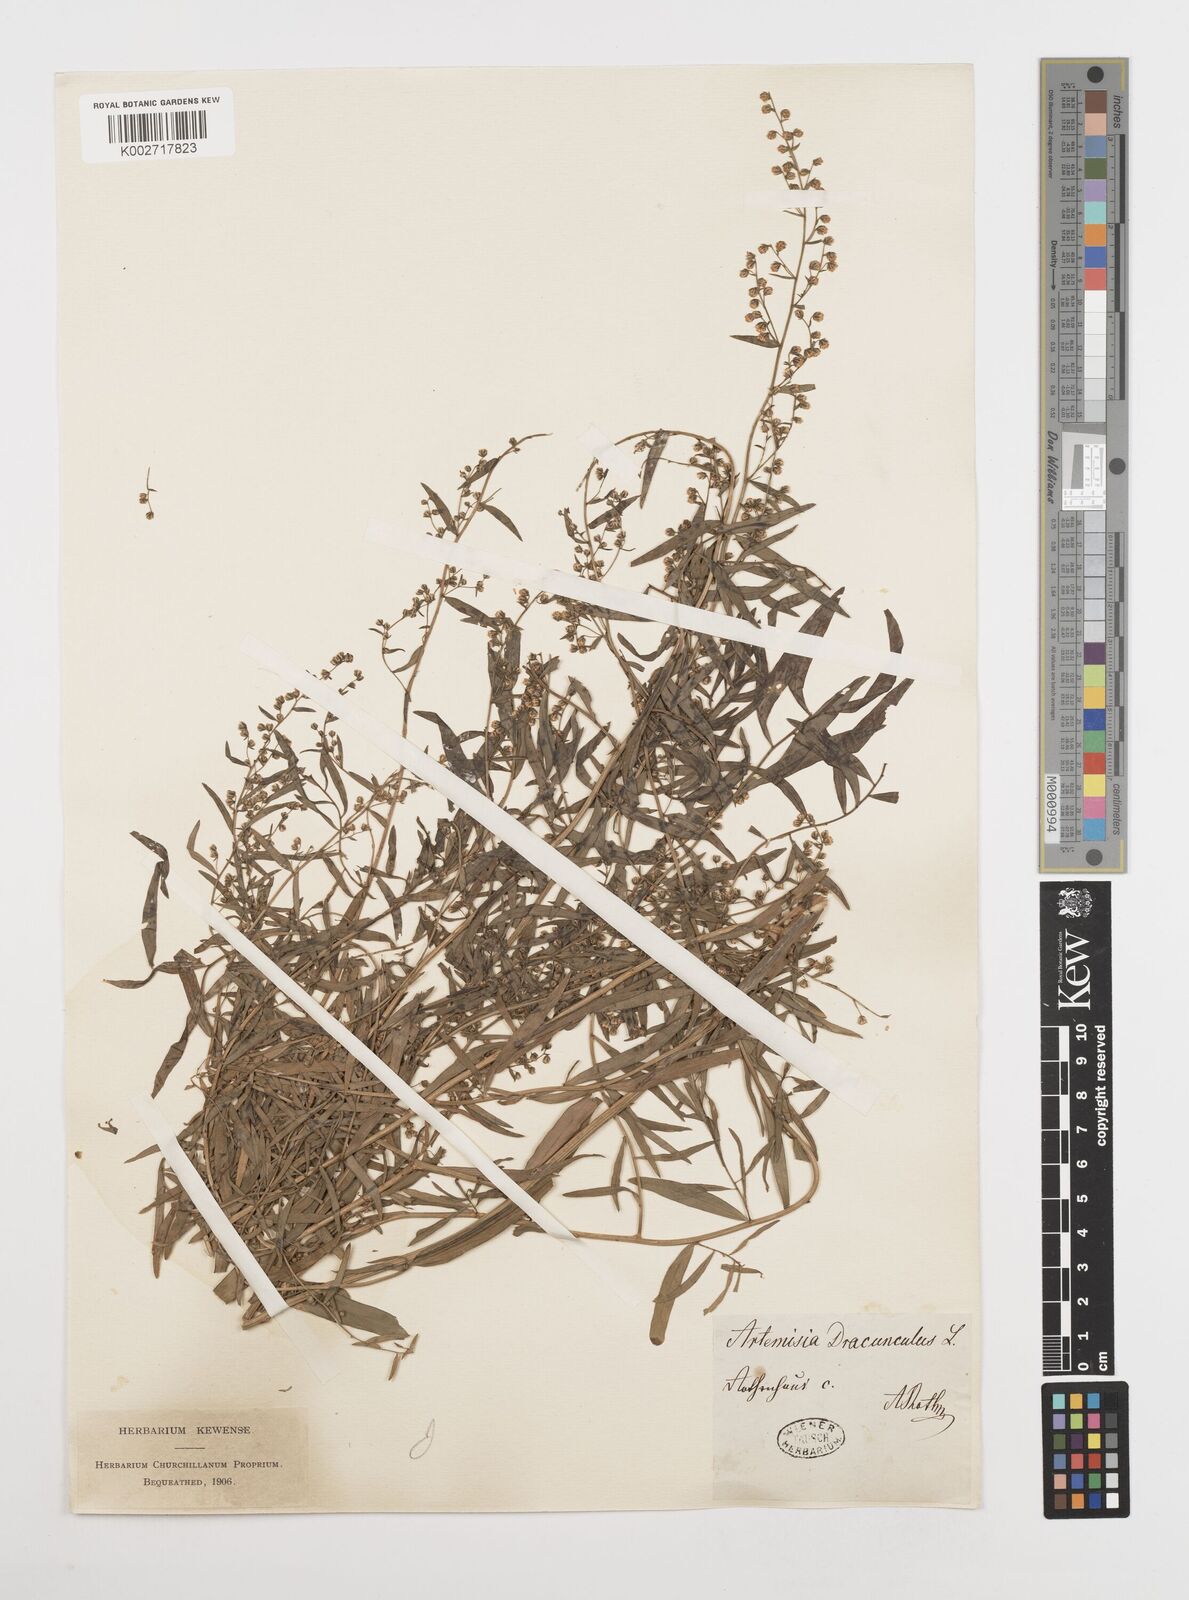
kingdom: Plantae
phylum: Tracheophyta
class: Magnoliopsida
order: Asterales
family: Asteraceae
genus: Artemisia
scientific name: Artemisia dracunculus
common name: Tarragon
